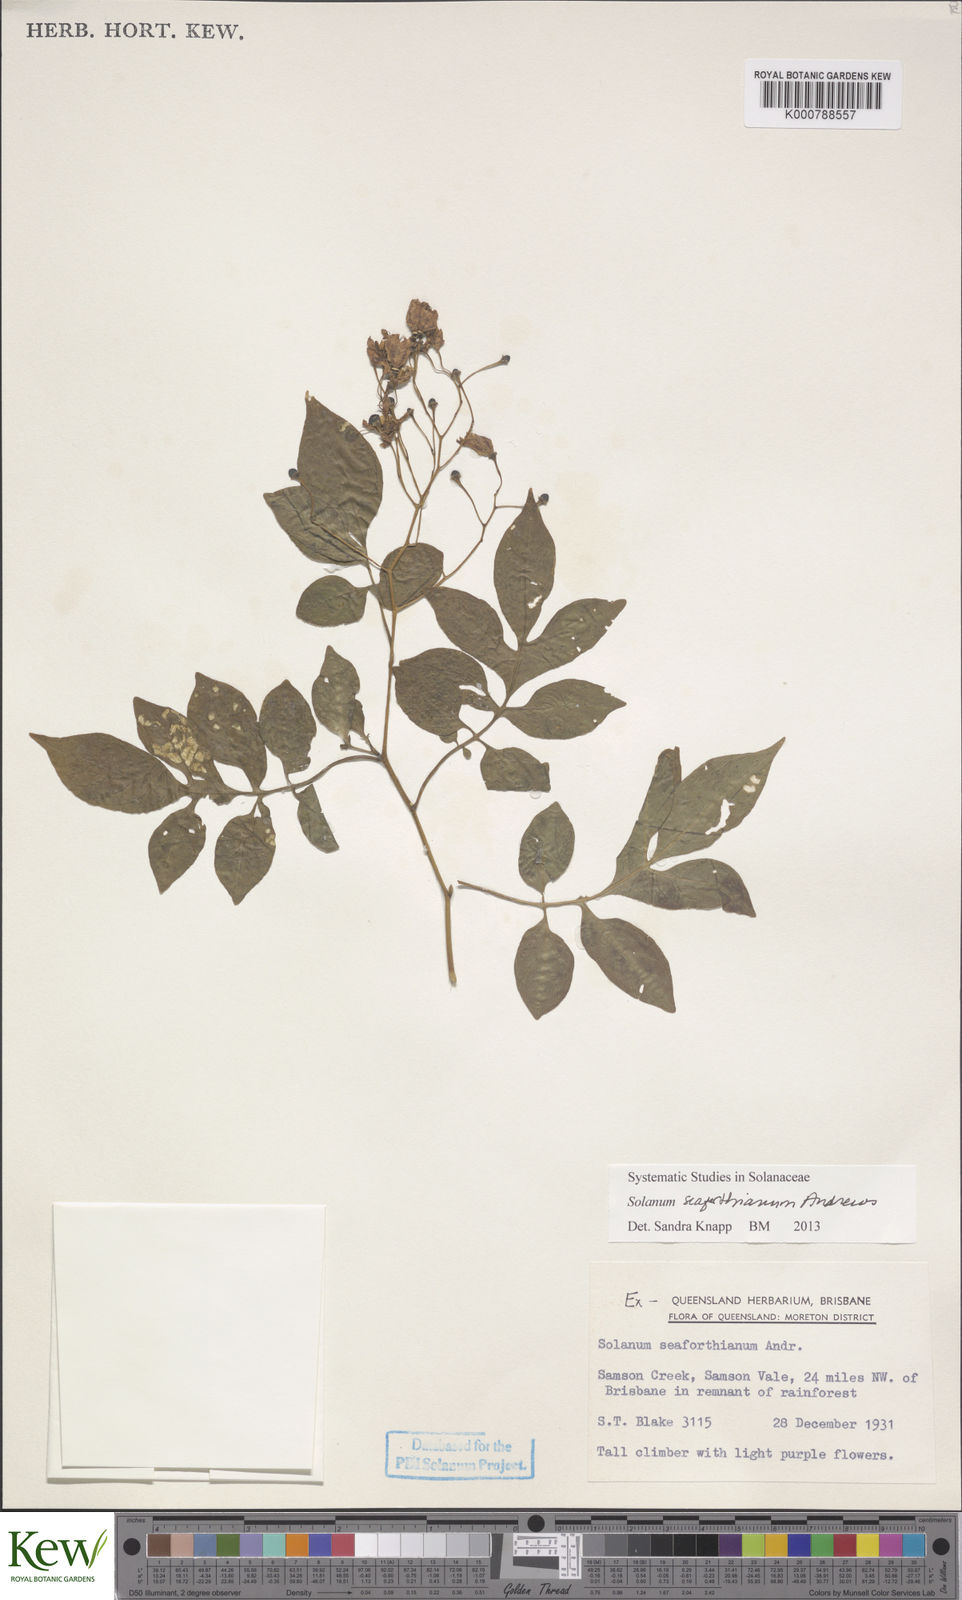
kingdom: Plantae
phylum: Tracheophyta
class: Magnoliopsida
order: Solanales
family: Solanaceae
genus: Solanum
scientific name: Solanum seaforthianum
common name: Brazilian nightshade
